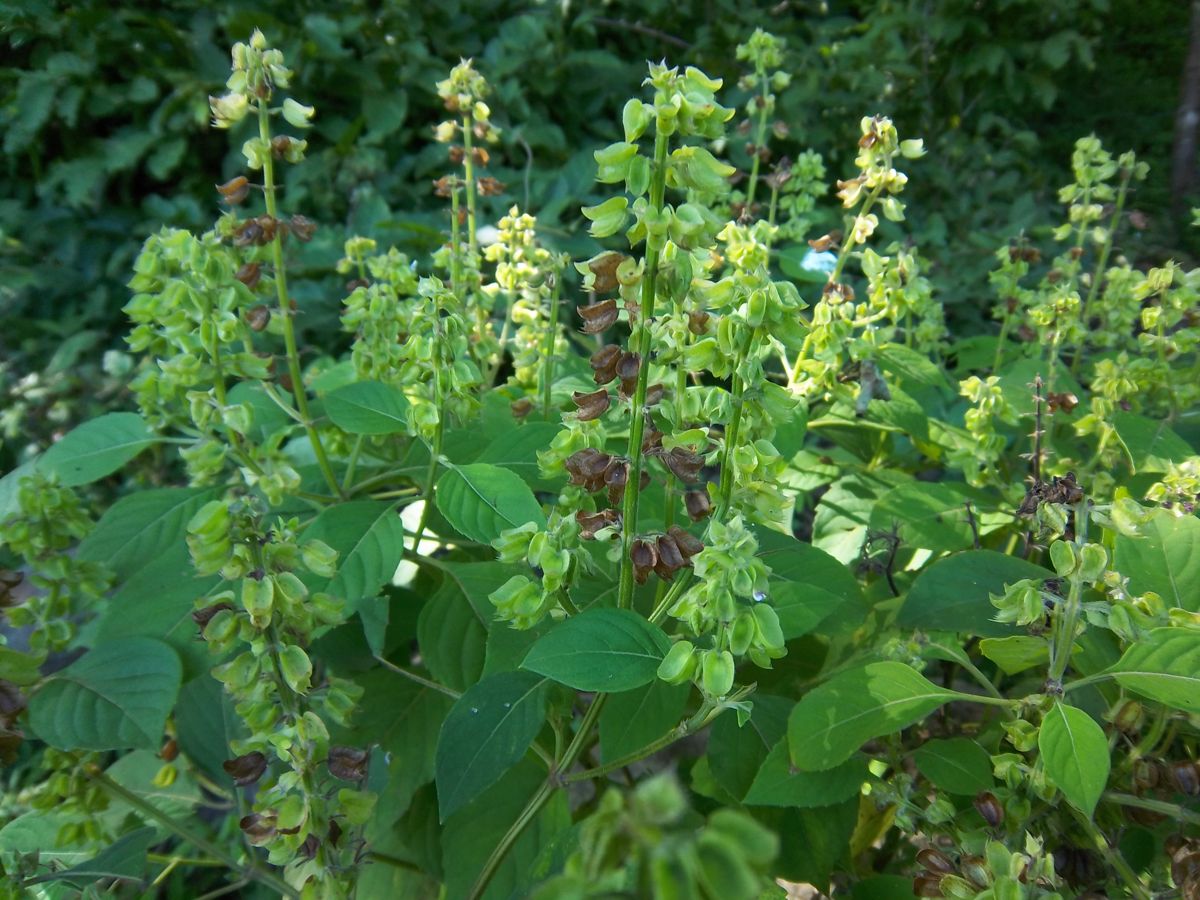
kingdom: Plantae
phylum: Tracheophyta
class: Magnoliopsida
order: Lamiales
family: Lamiaceae
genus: Ocimum
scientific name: Ocimum campechianum
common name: Mosquito basil
